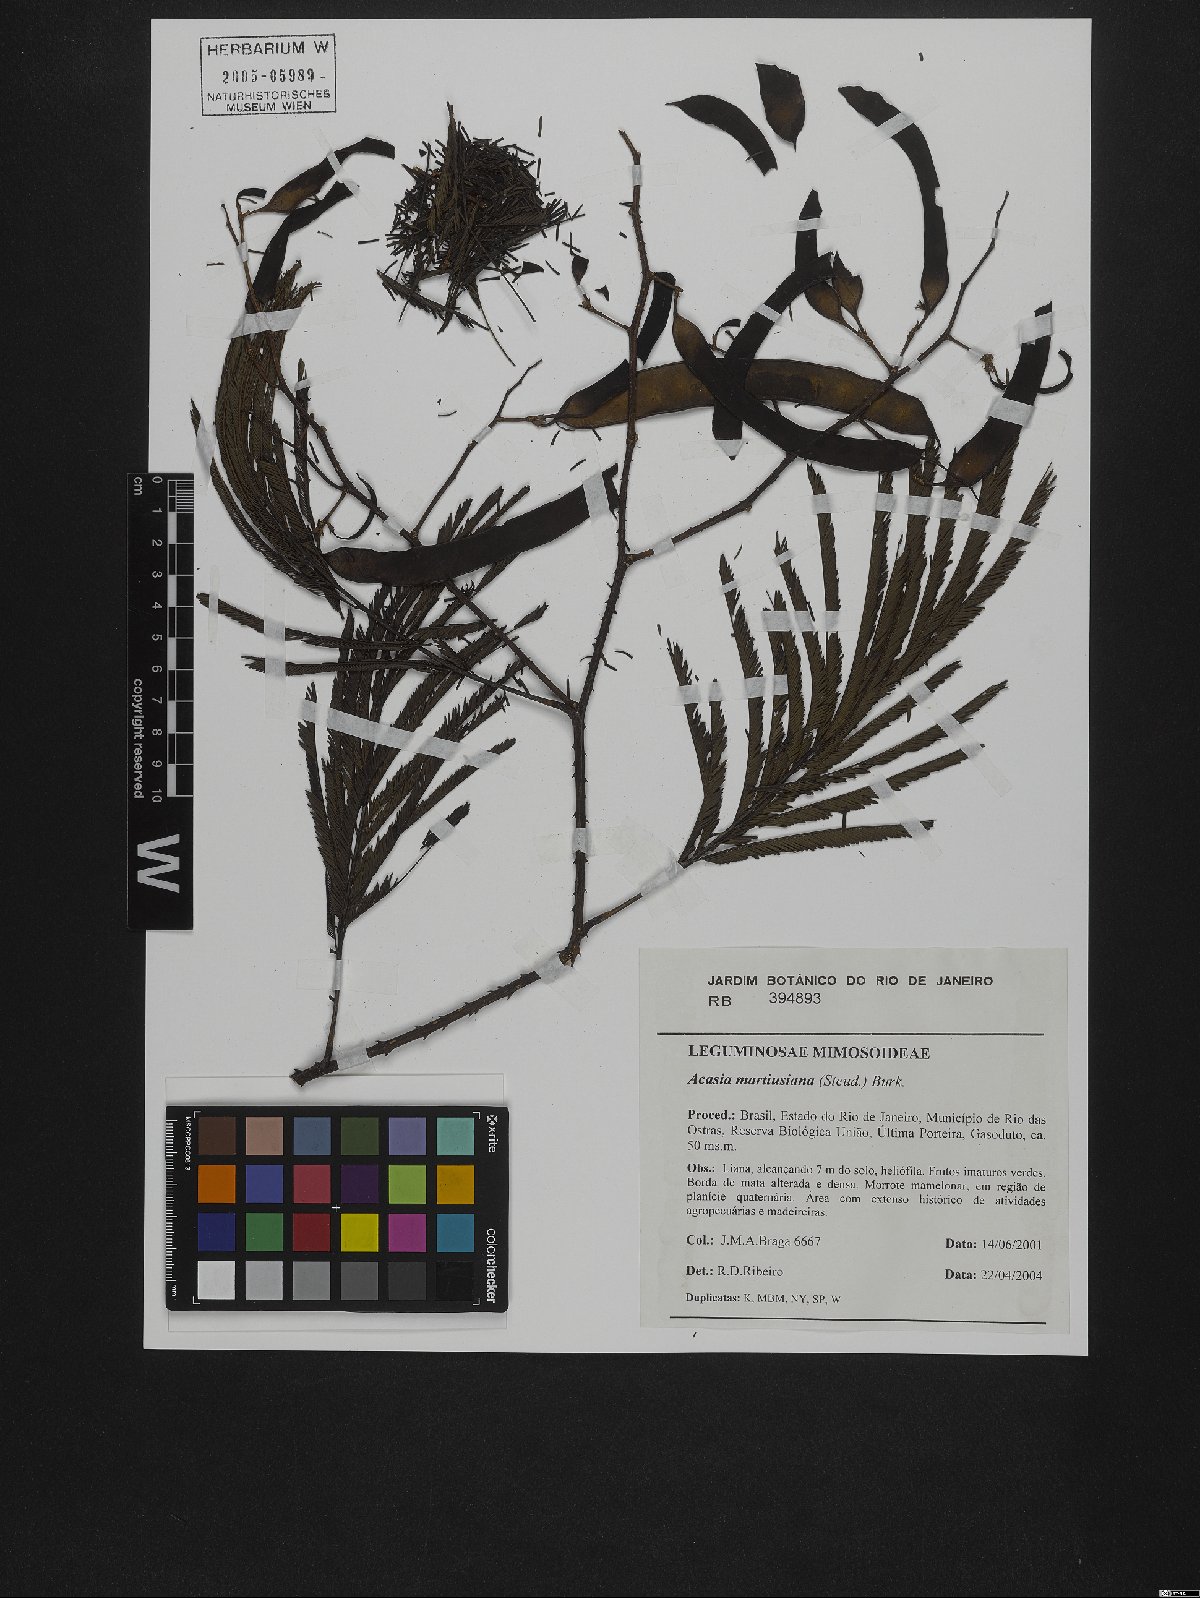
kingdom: Plantae
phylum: Tracheophyta
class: Magnoliopsida
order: Fabales
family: Fabaceae
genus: Senegalia
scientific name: Senegalia martiusiana
